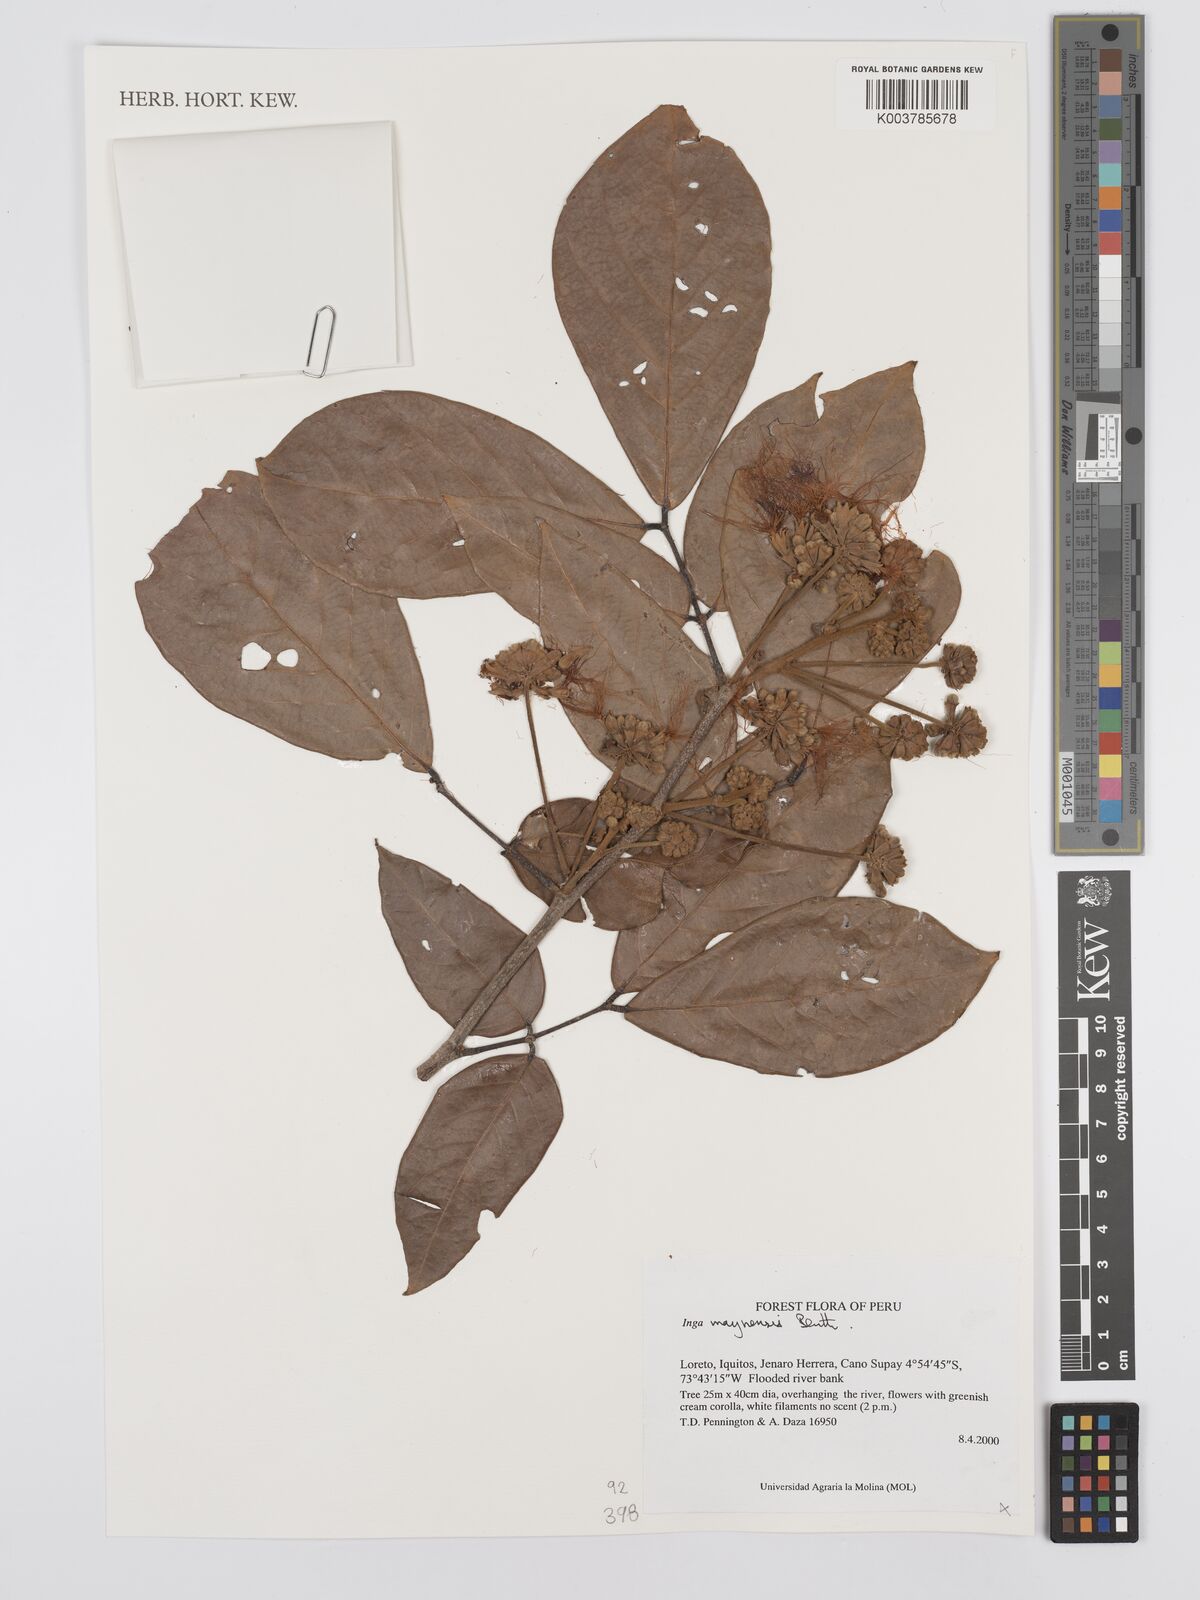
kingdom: Plantae
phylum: Tracheophyta
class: Magnoliopsida
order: Fabales
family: Fabaceae
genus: Inga
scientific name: Inga maynensis
